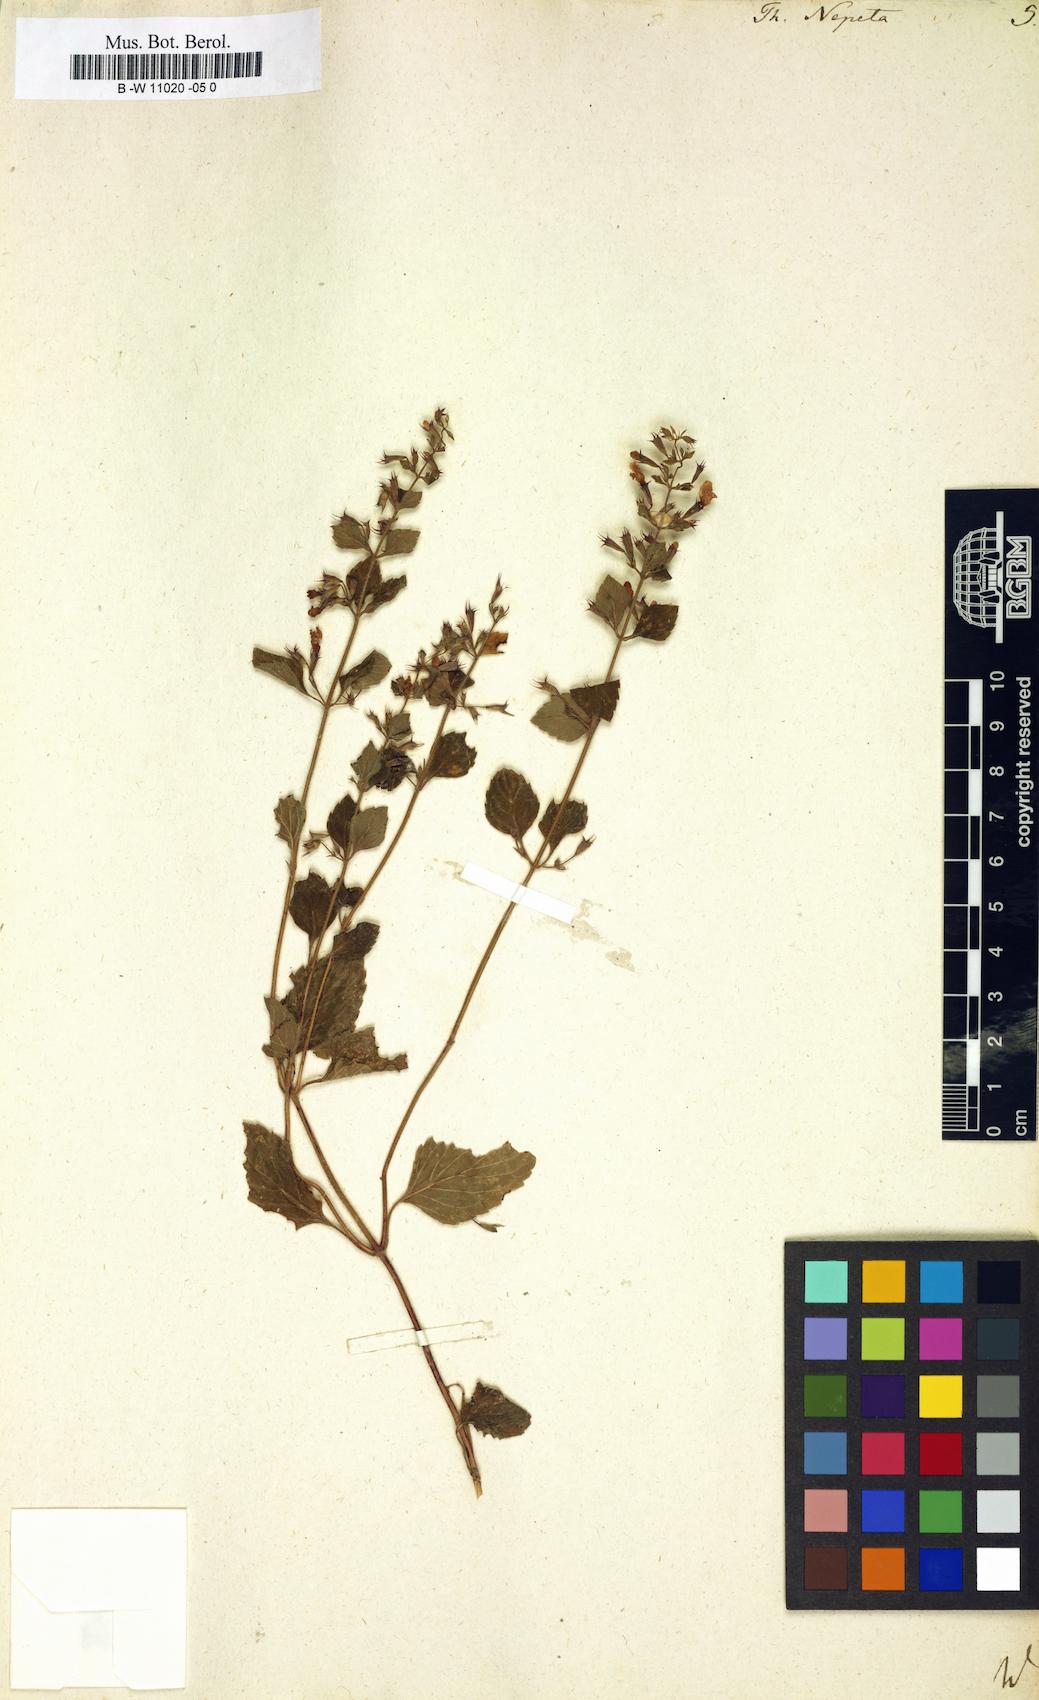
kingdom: Plantae
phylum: Tracheophyta
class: Magnoliopsida
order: Lamiales
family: Lamiaceae
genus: Clinopodium
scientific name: Clinopodium nepeta
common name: Lesser calamint
